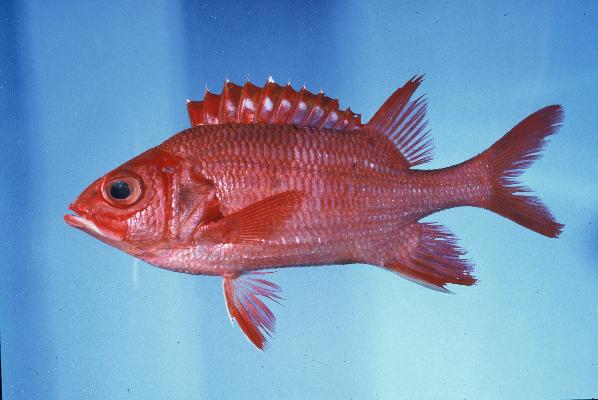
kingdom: Animalia
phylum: Chordata
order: Beryciformes
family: Holocentridae
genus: Sargocentron
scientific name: Sargocentron tiere
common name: Blue lined squirrelfish
